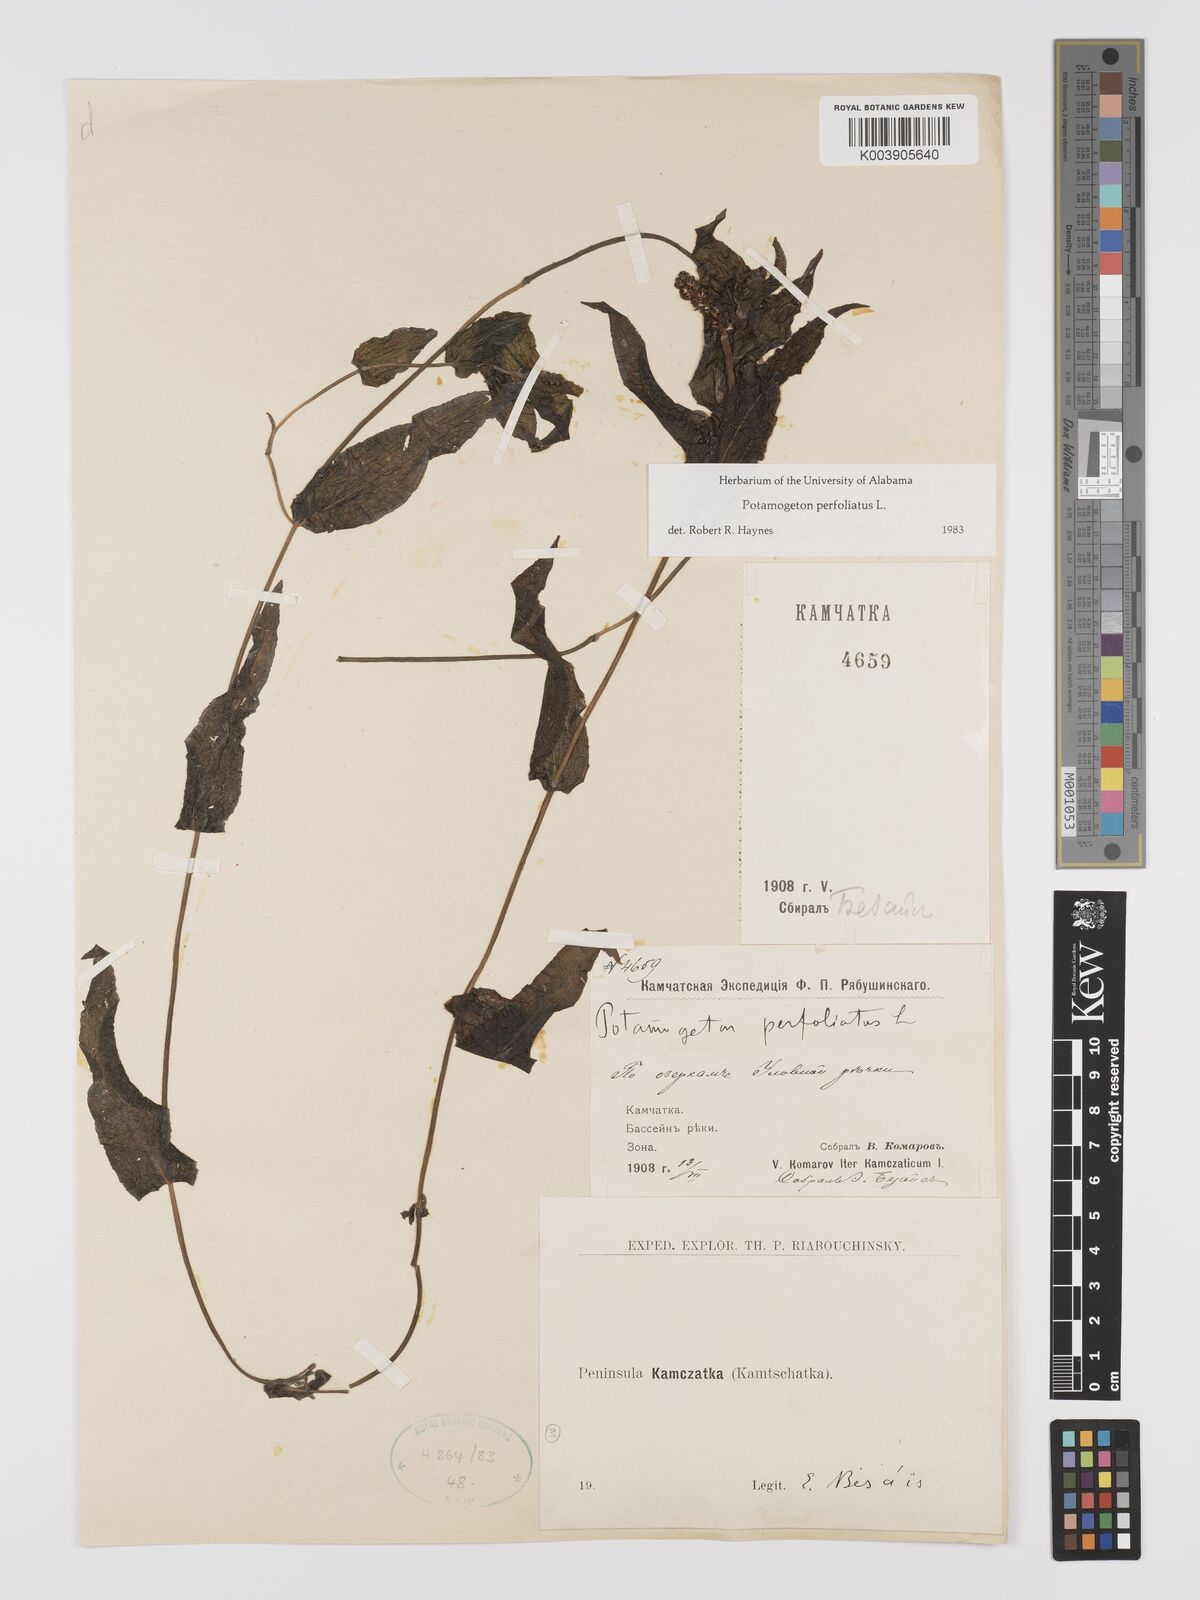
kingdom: Plantae
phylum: Tracheophyta
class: Liliopsida
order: Alismatales
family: Potamogetonaceae
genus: Potamogeton
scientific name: Potamogeton perfoliatus
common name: Perfoliate pondweed
